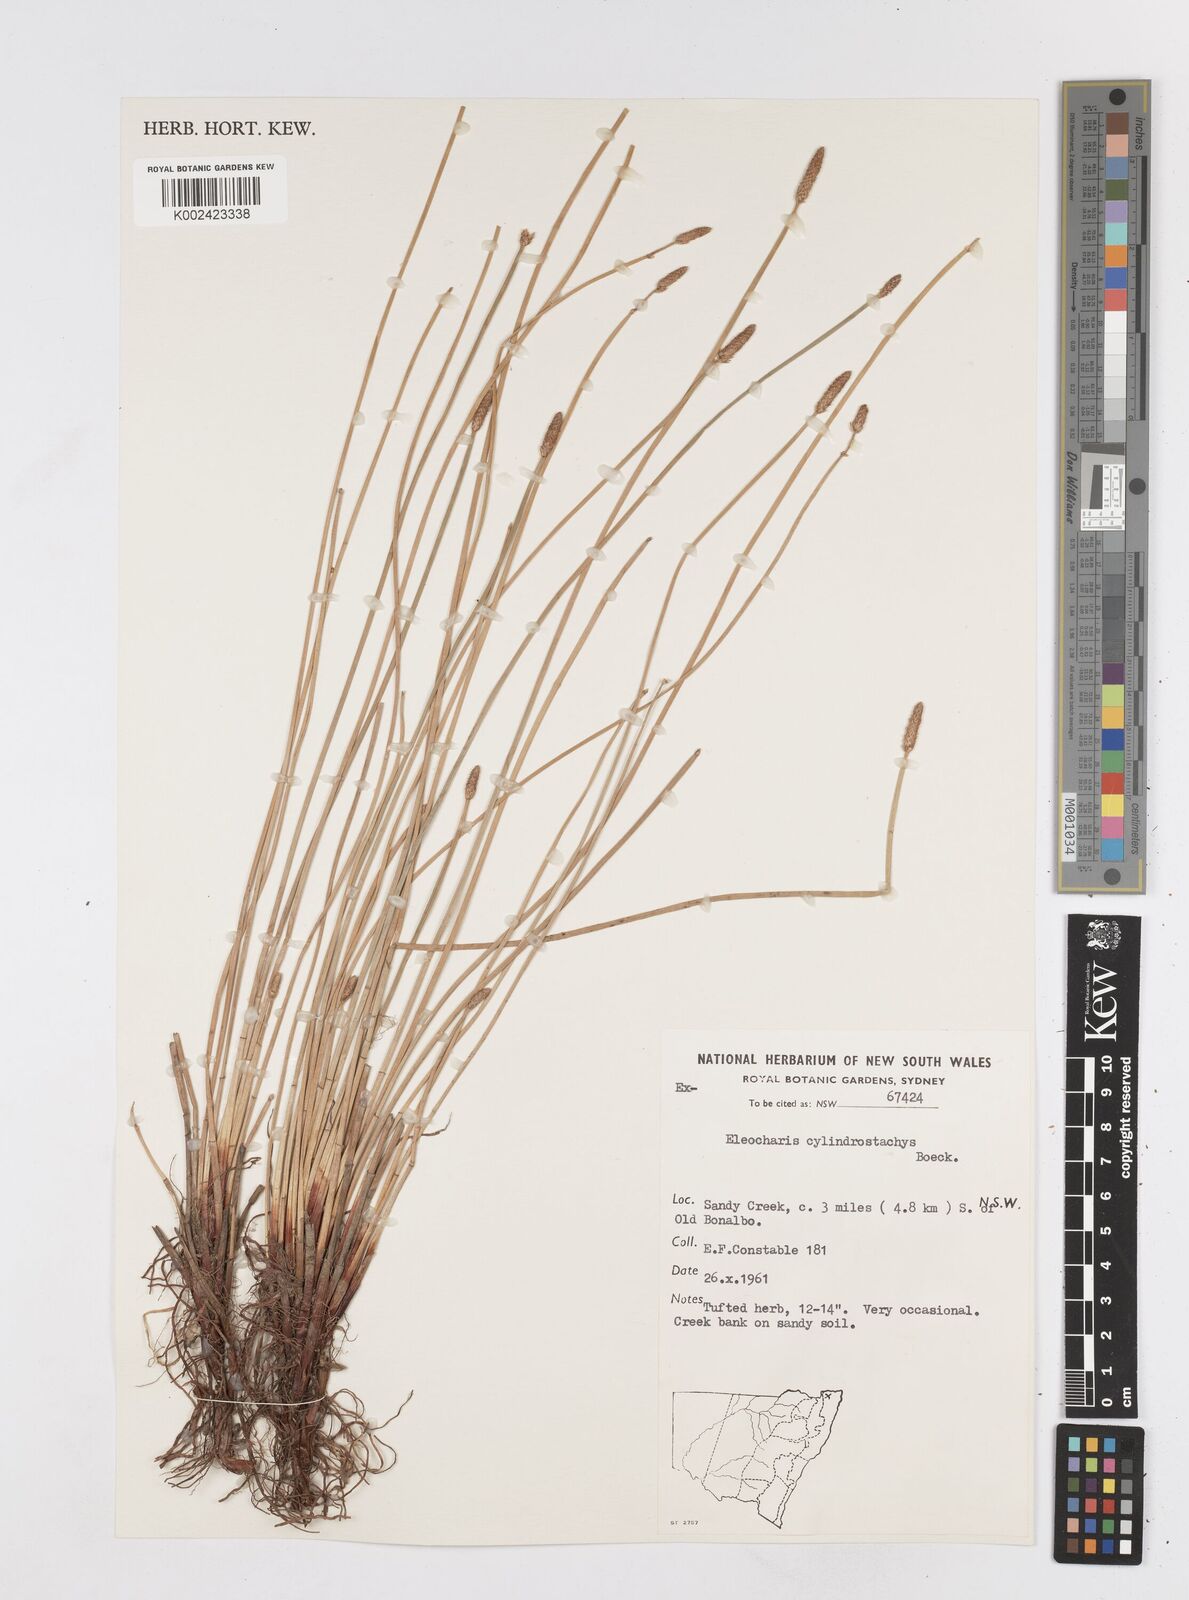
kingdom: Plantae
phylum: Tracheophyta
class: Liliopsida
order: Poales
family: Cyperaceae
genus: Eleocharis
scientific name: Eleocharis cylindrostachys
